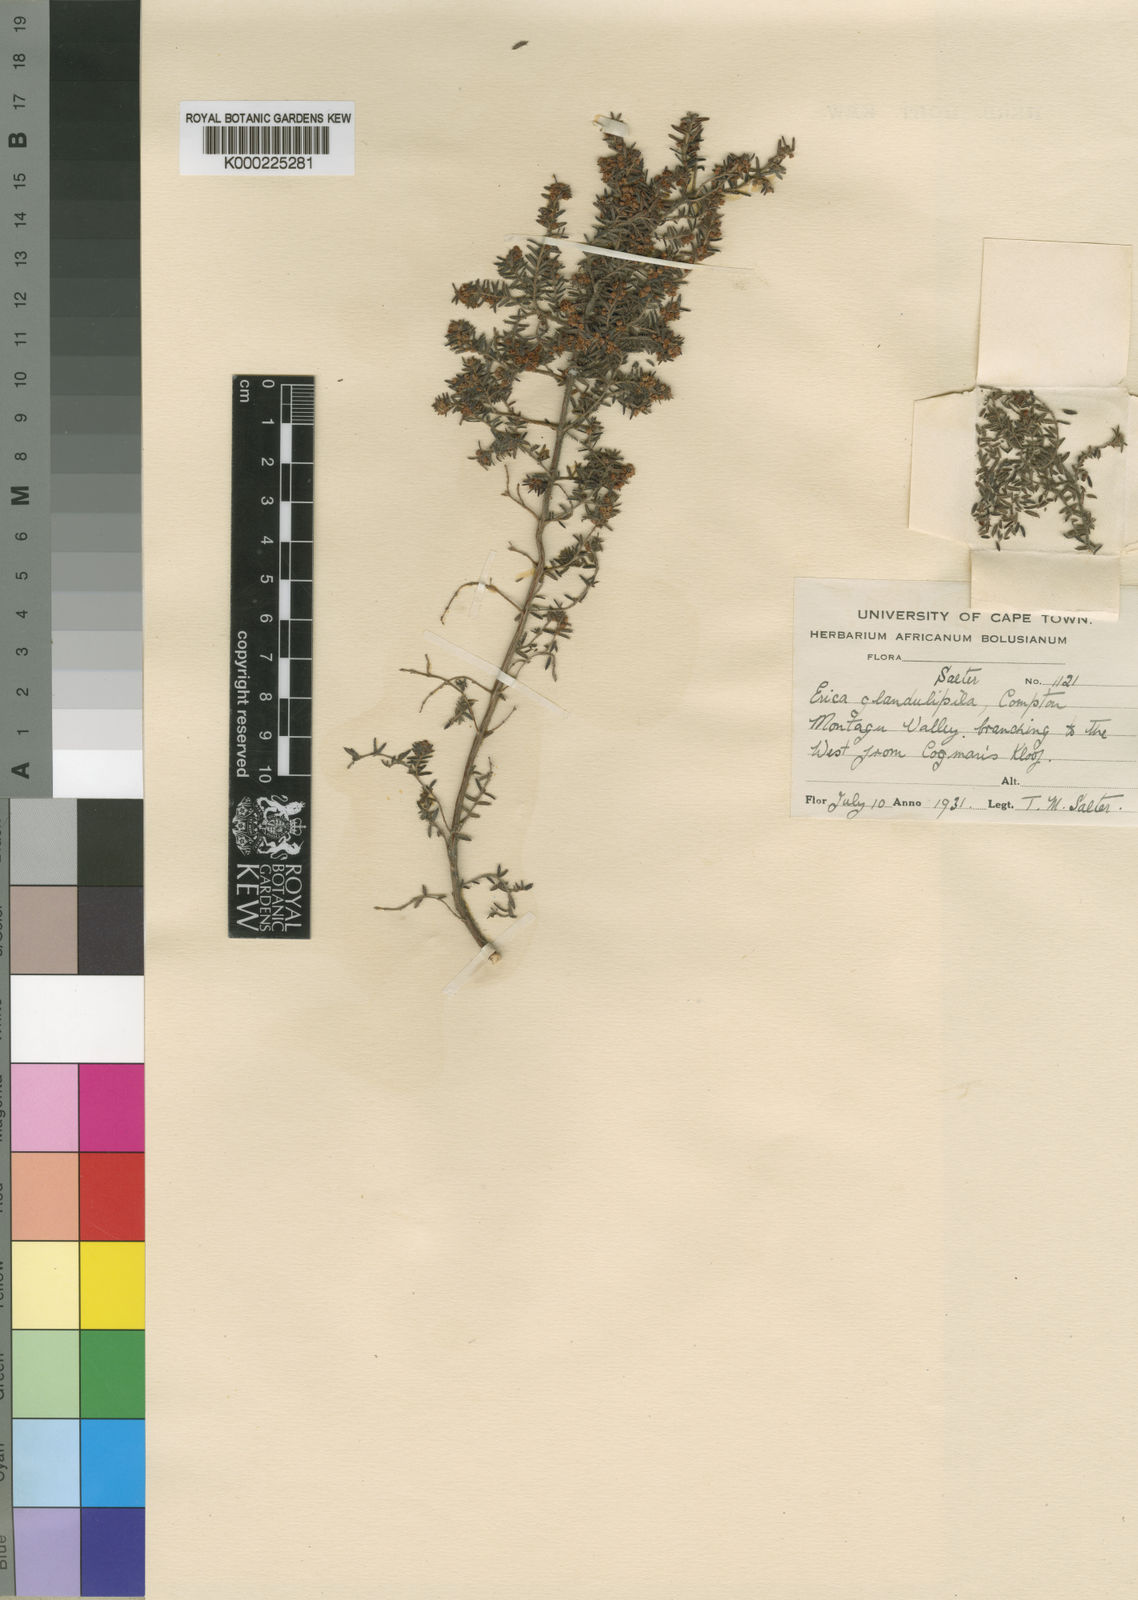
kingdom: Plantae
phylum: Tracheophyta
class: Magnoliopsida
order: Ericales
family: Ericaceae
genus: Erica
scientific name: Erica glandulipila
